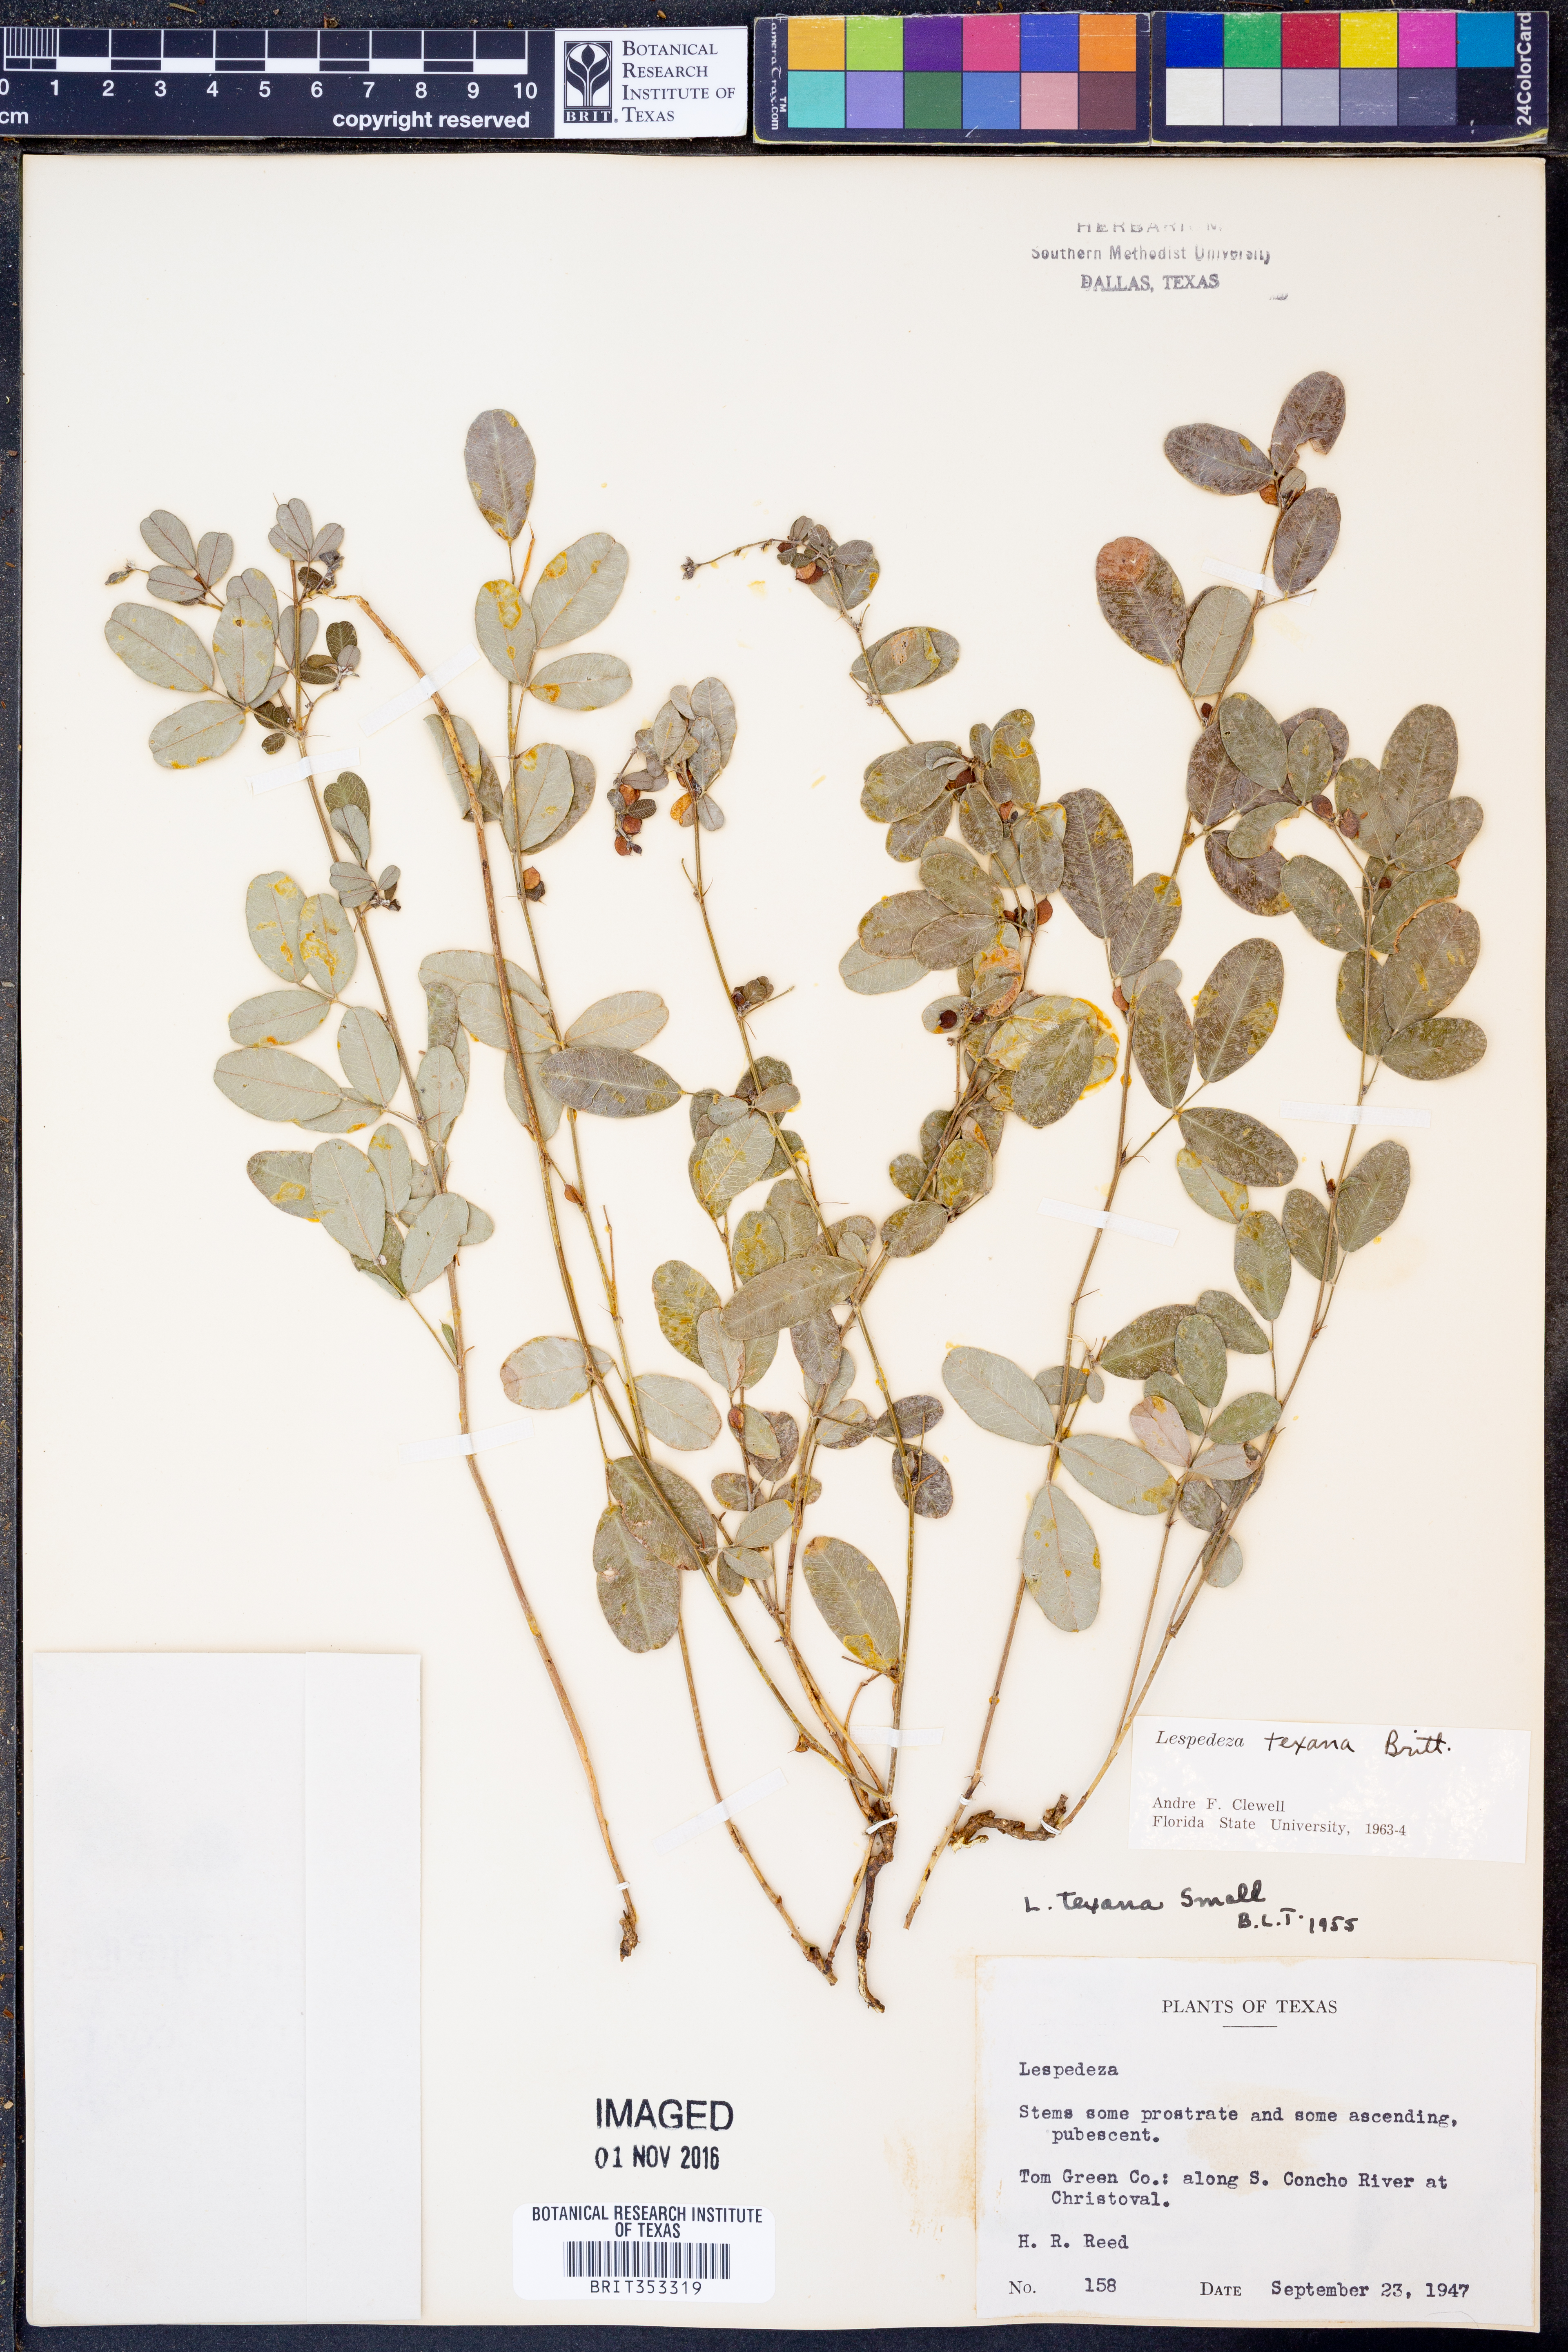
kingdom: Plantae
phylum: Tracheophyta
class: Magnoliopsida
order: Fabales
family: Fabaceae
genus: Lespedeza
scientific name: Lespedeza texana
